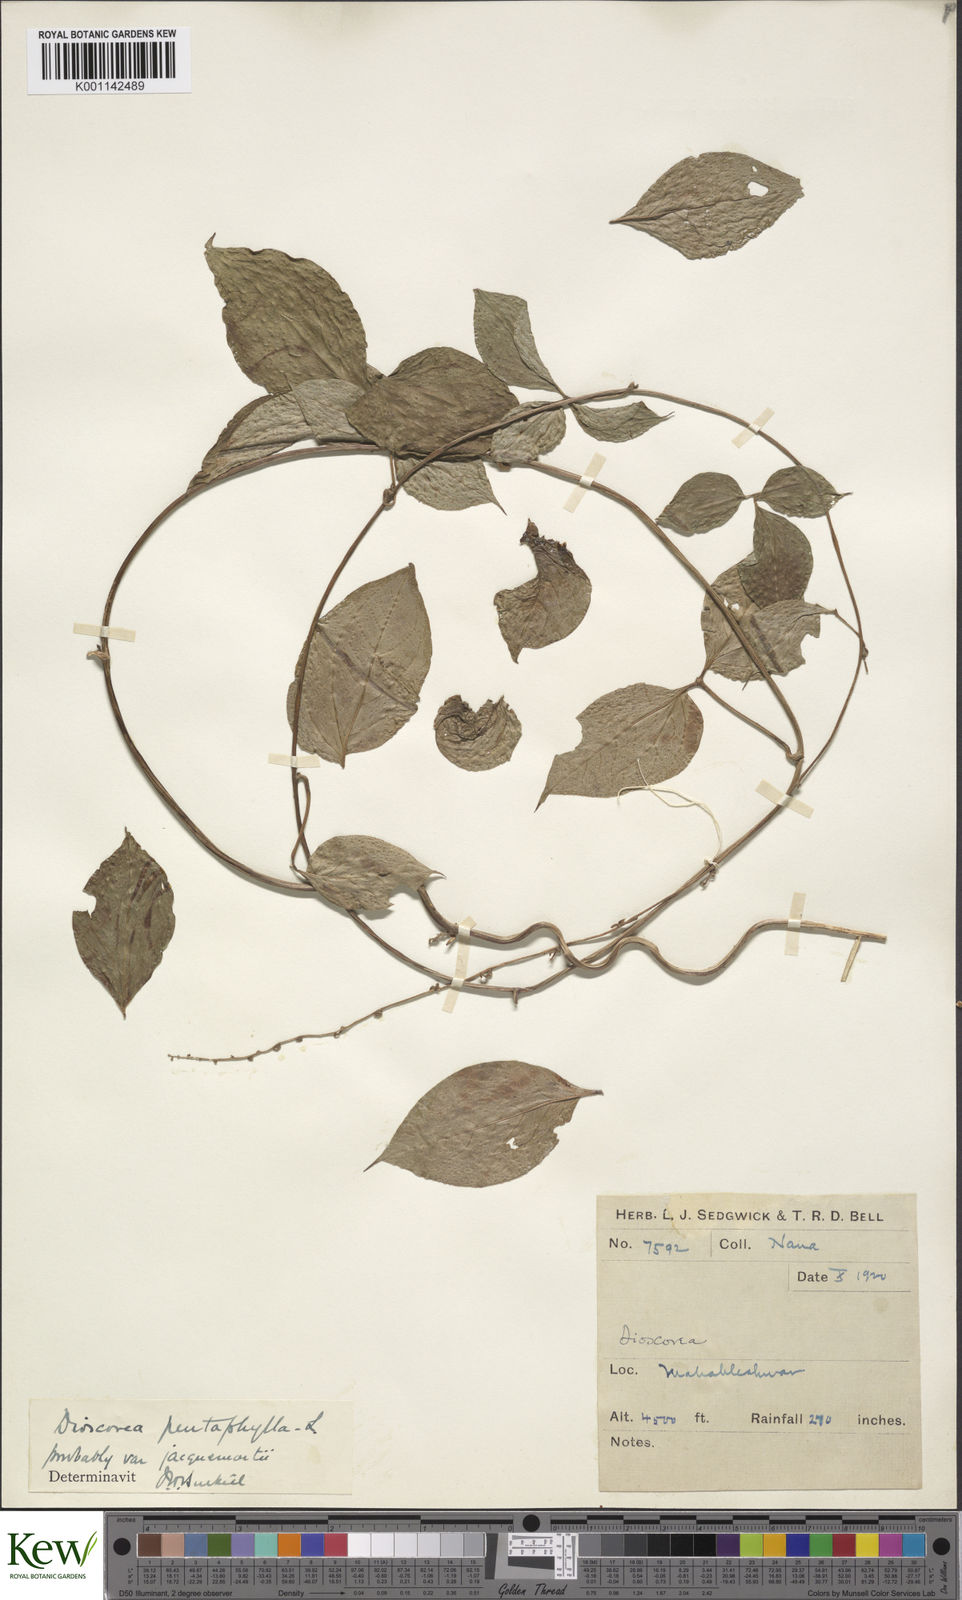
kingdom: Plantae
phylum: Tracheophyta
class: Liliopsida
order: Dioscoreales
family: Dioscoreaceae
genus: Dioscorea
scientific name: Dioscorea pentaphylla
